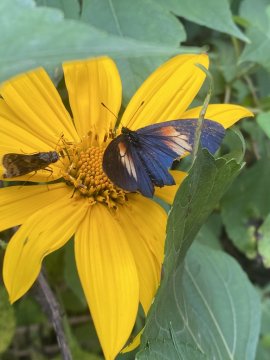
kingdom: Animalia
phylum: Arthropoda
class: Insecta
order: Lepidoptera
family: Nymphalidae
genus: Acraea
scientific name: Acraea Altinote ozomene
